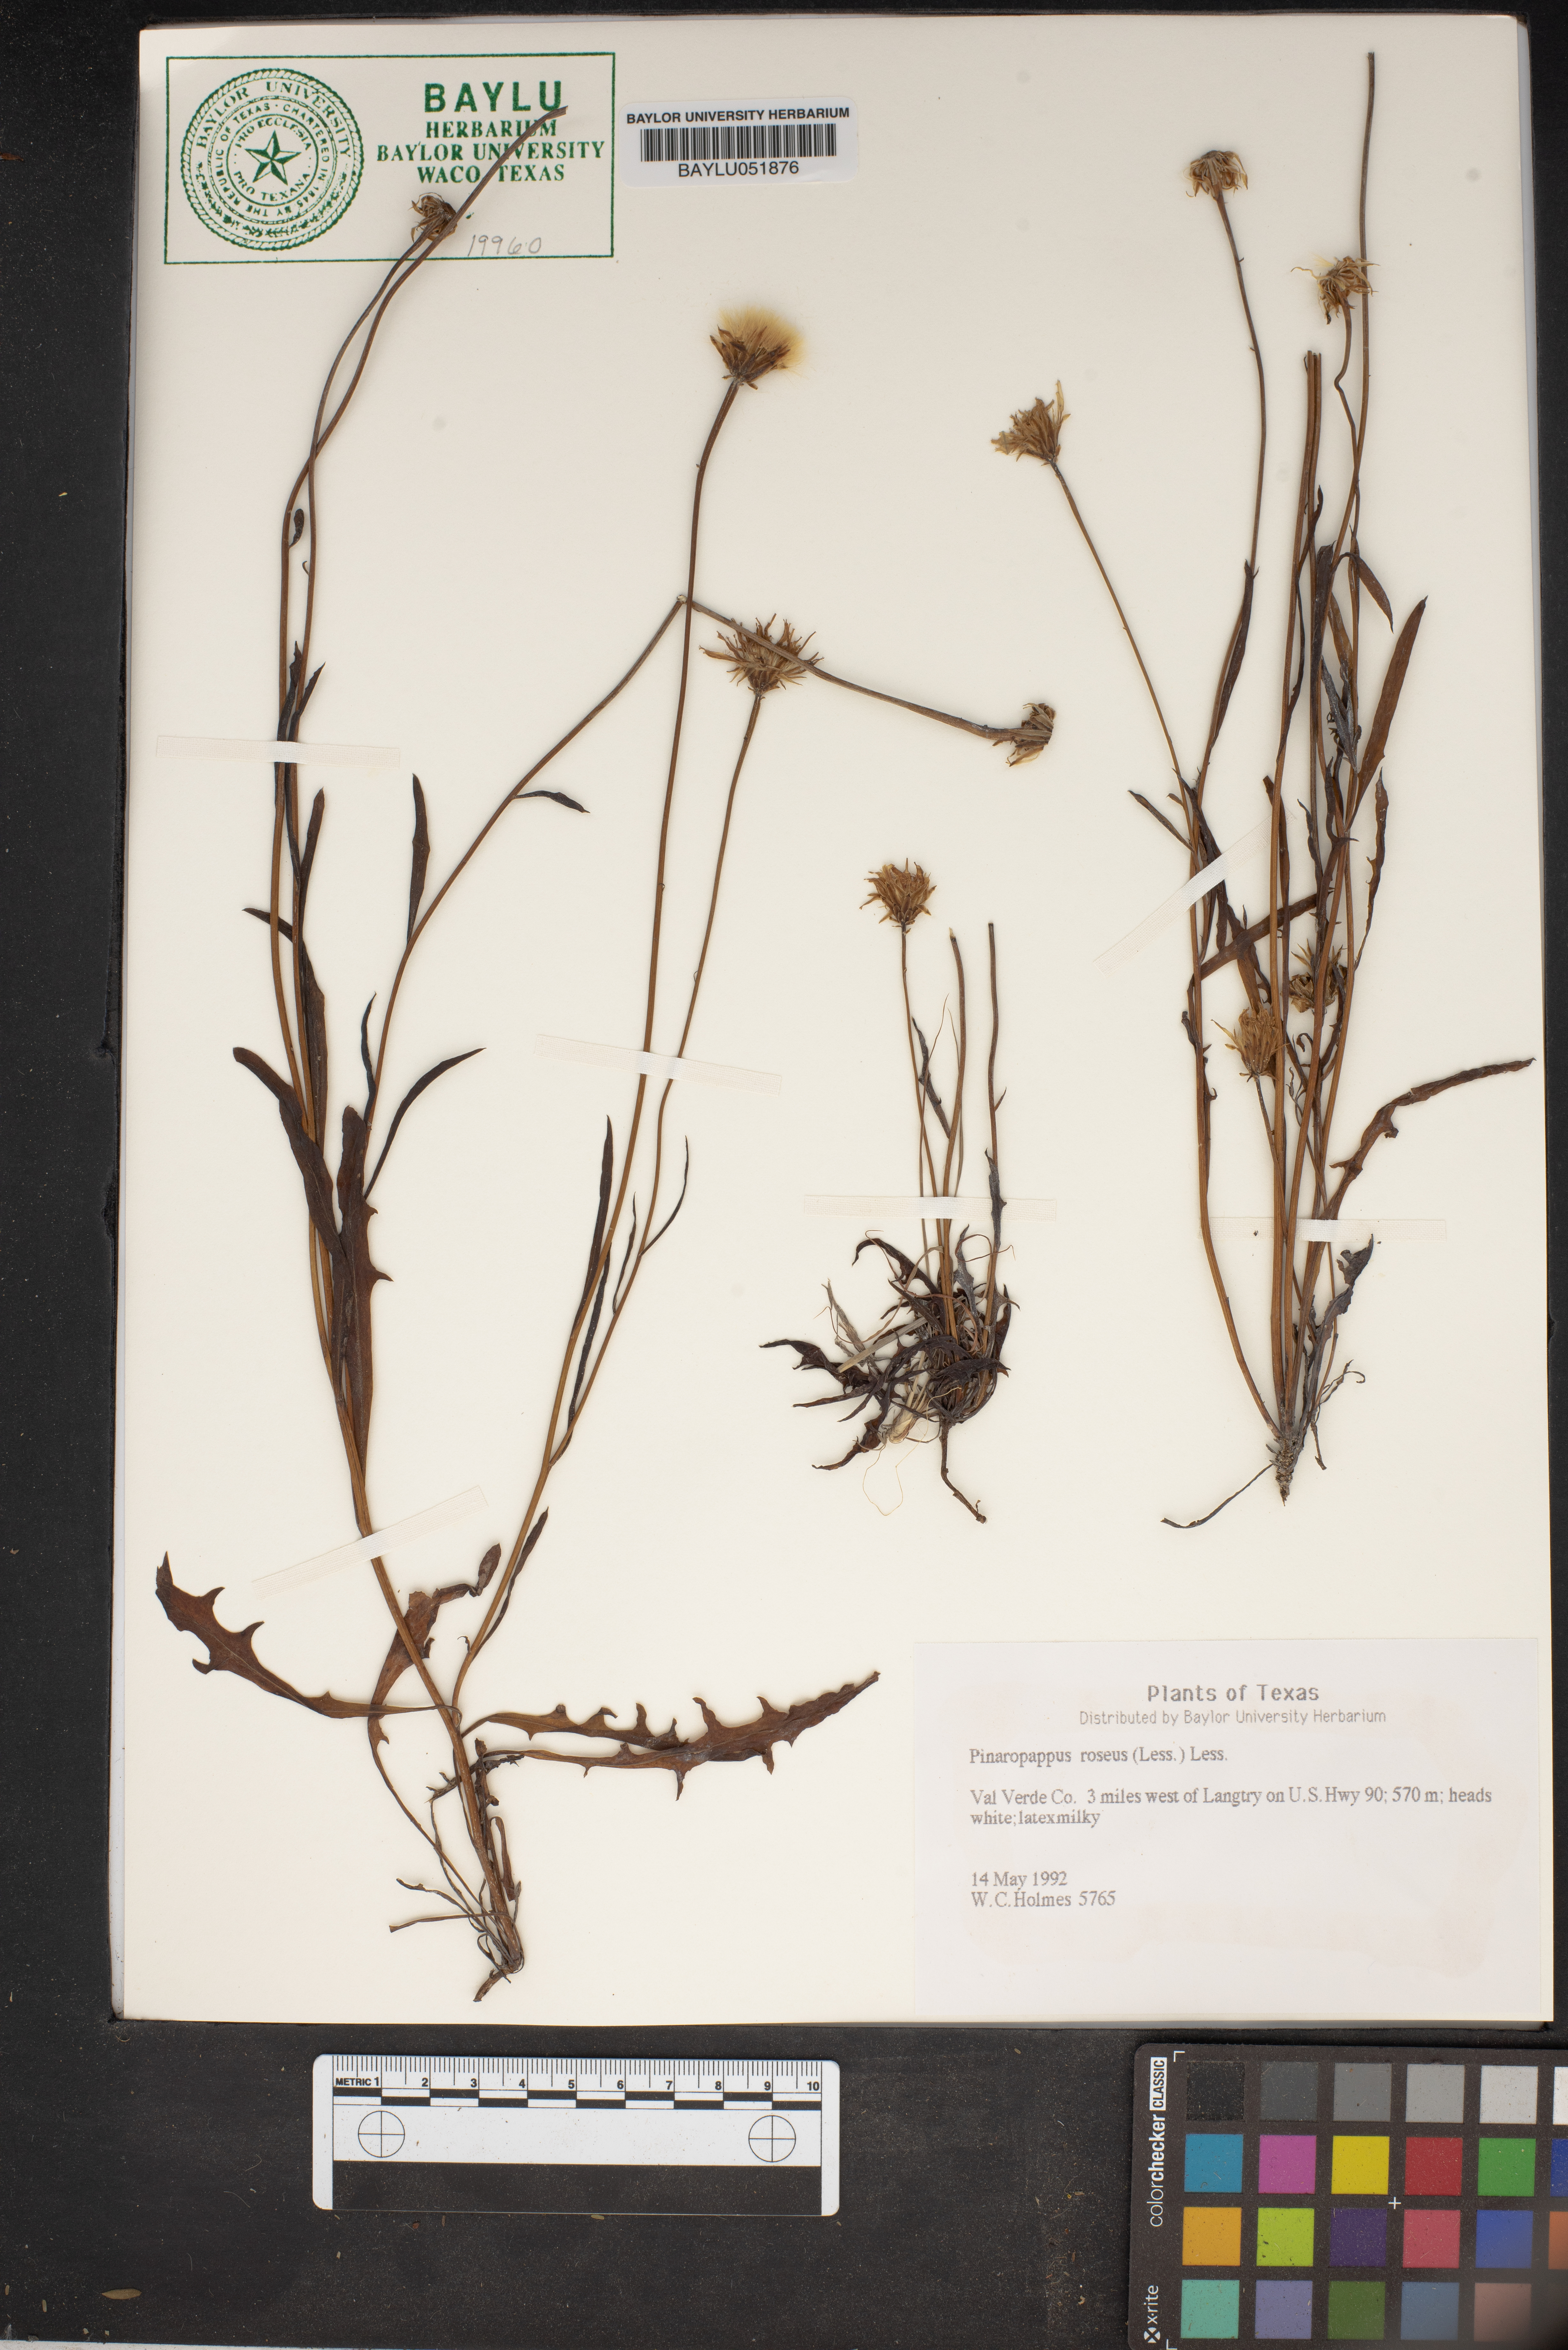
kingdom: Plantae
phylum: Tracheophyta
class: Magnoliopsida
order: Asterales
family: Asteraceae
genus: Pinaropappus
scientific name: Pinaropappus roseus
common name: Rock-lettuce
